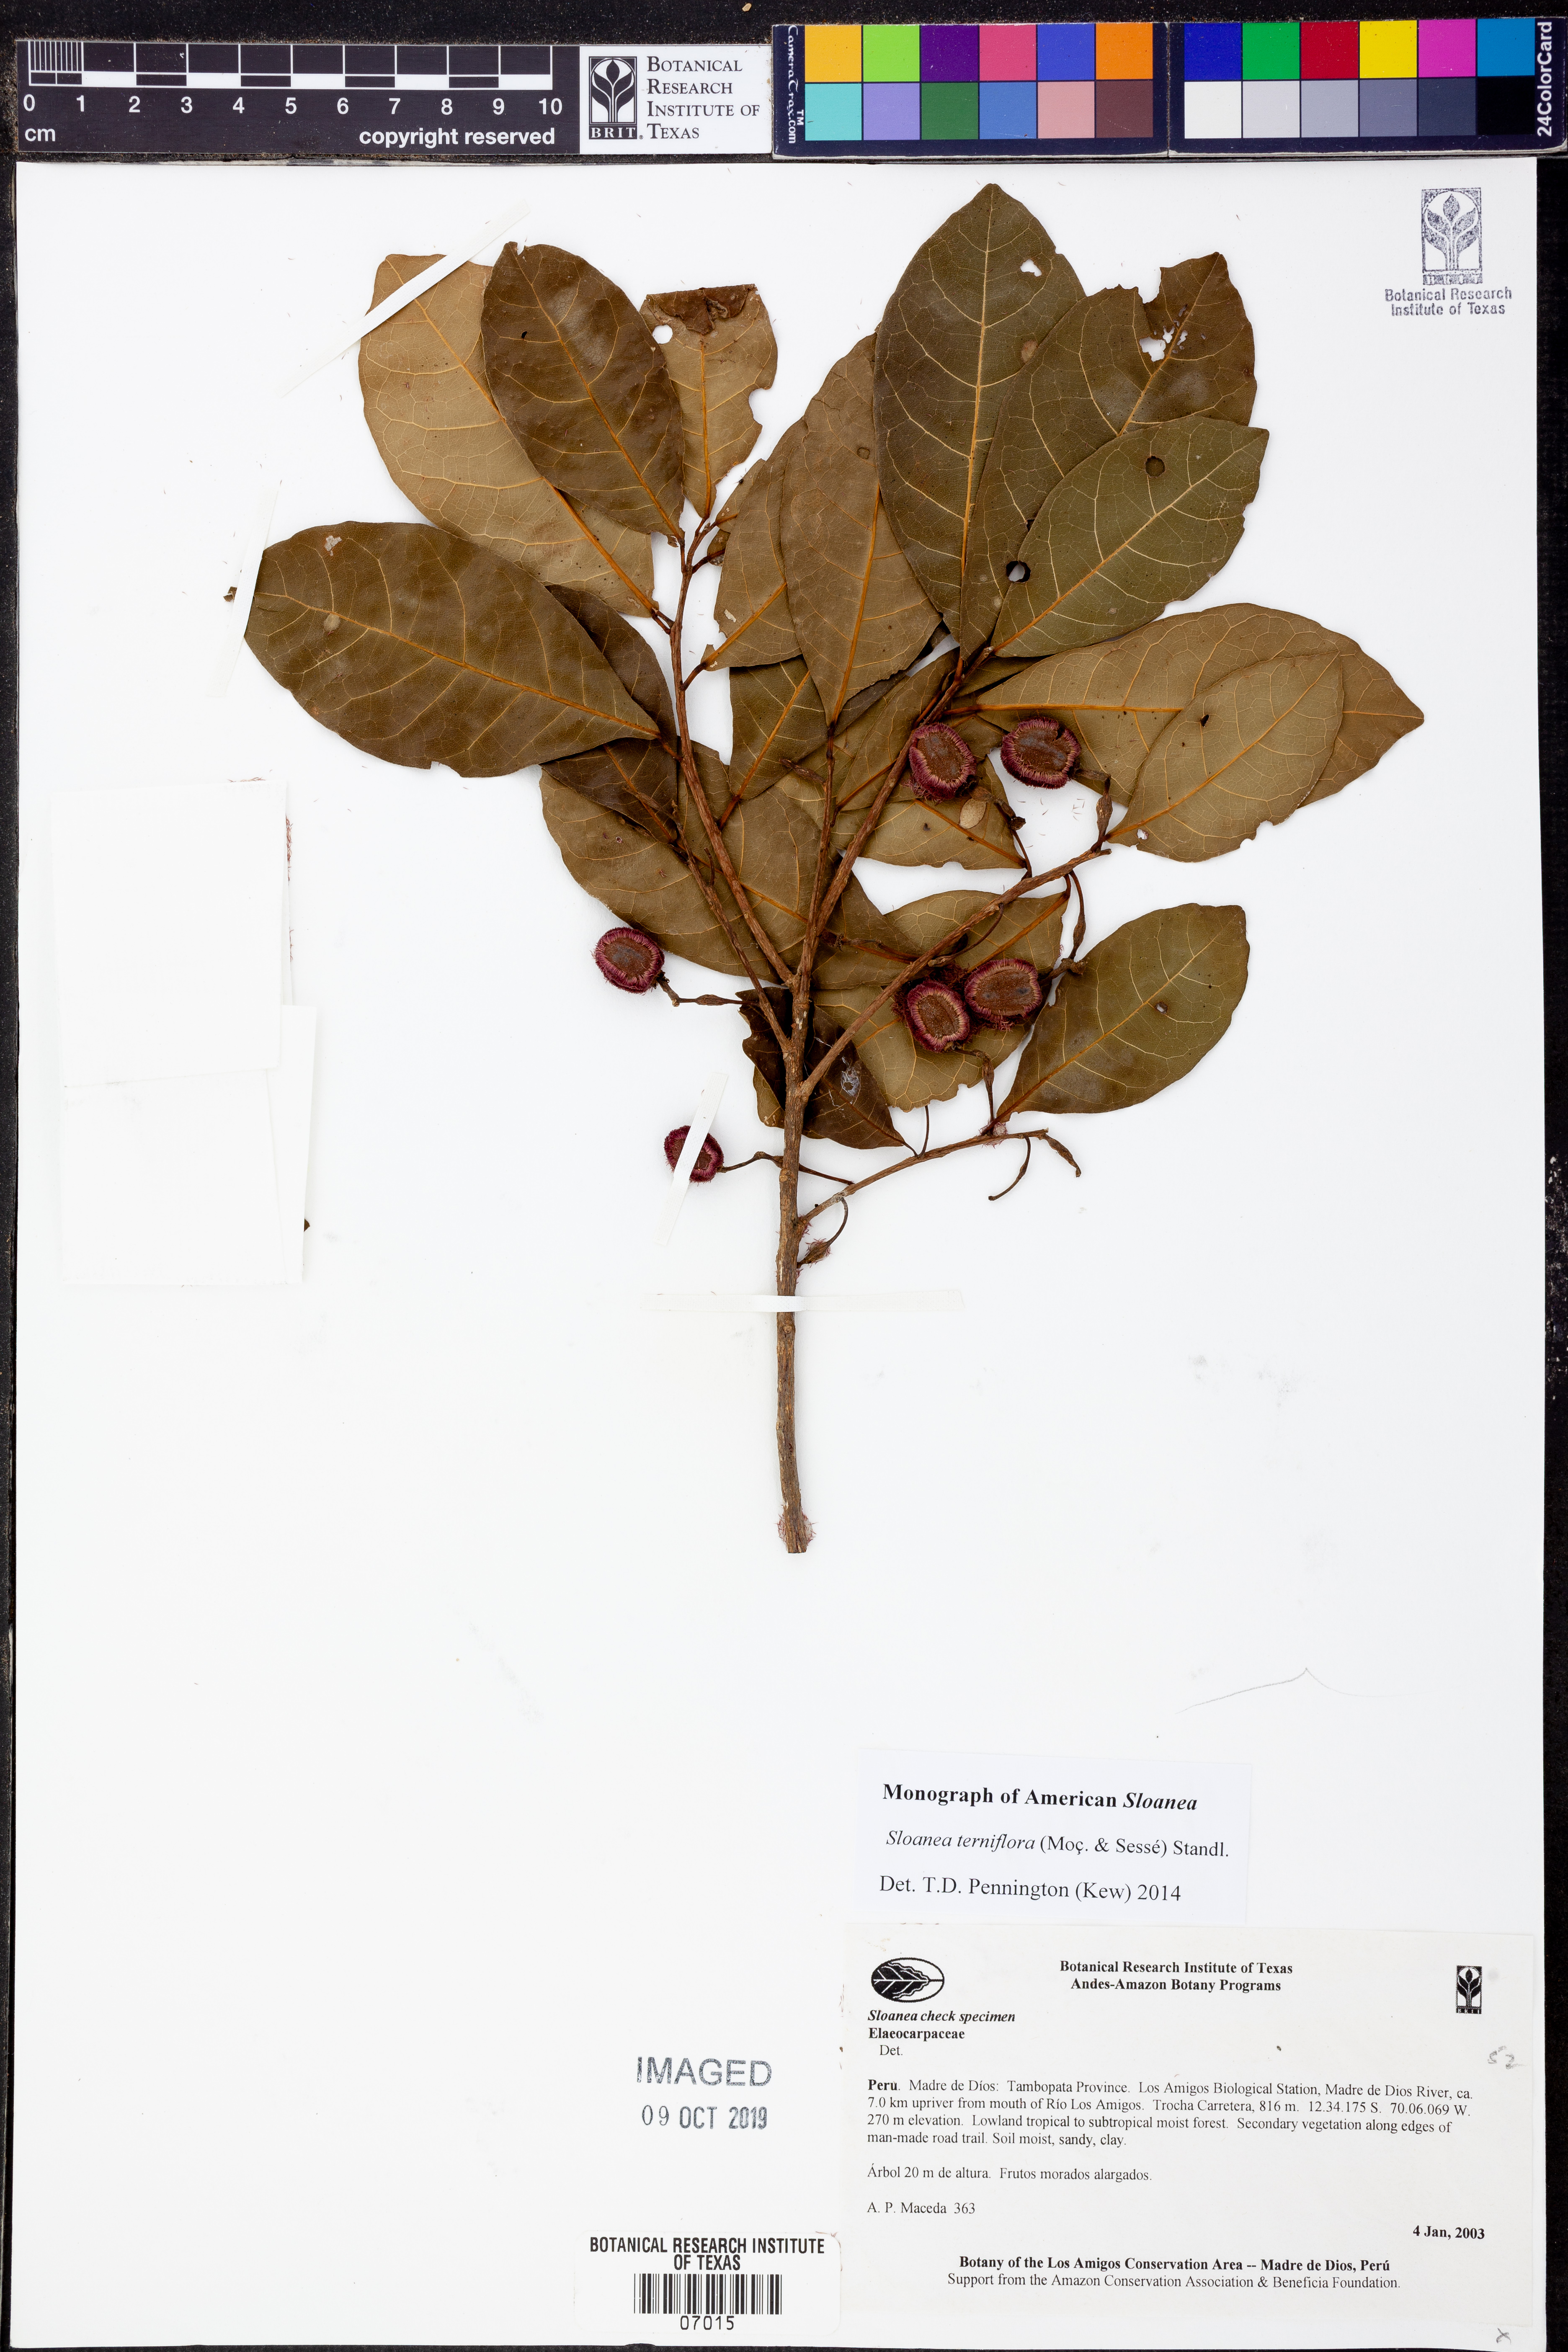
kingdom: Plantae
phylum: Tracheophyta
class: Magnoliopsida
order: Oxalidales
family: Elaeocarpaceae
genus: Sloanea
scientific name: Sloanea
